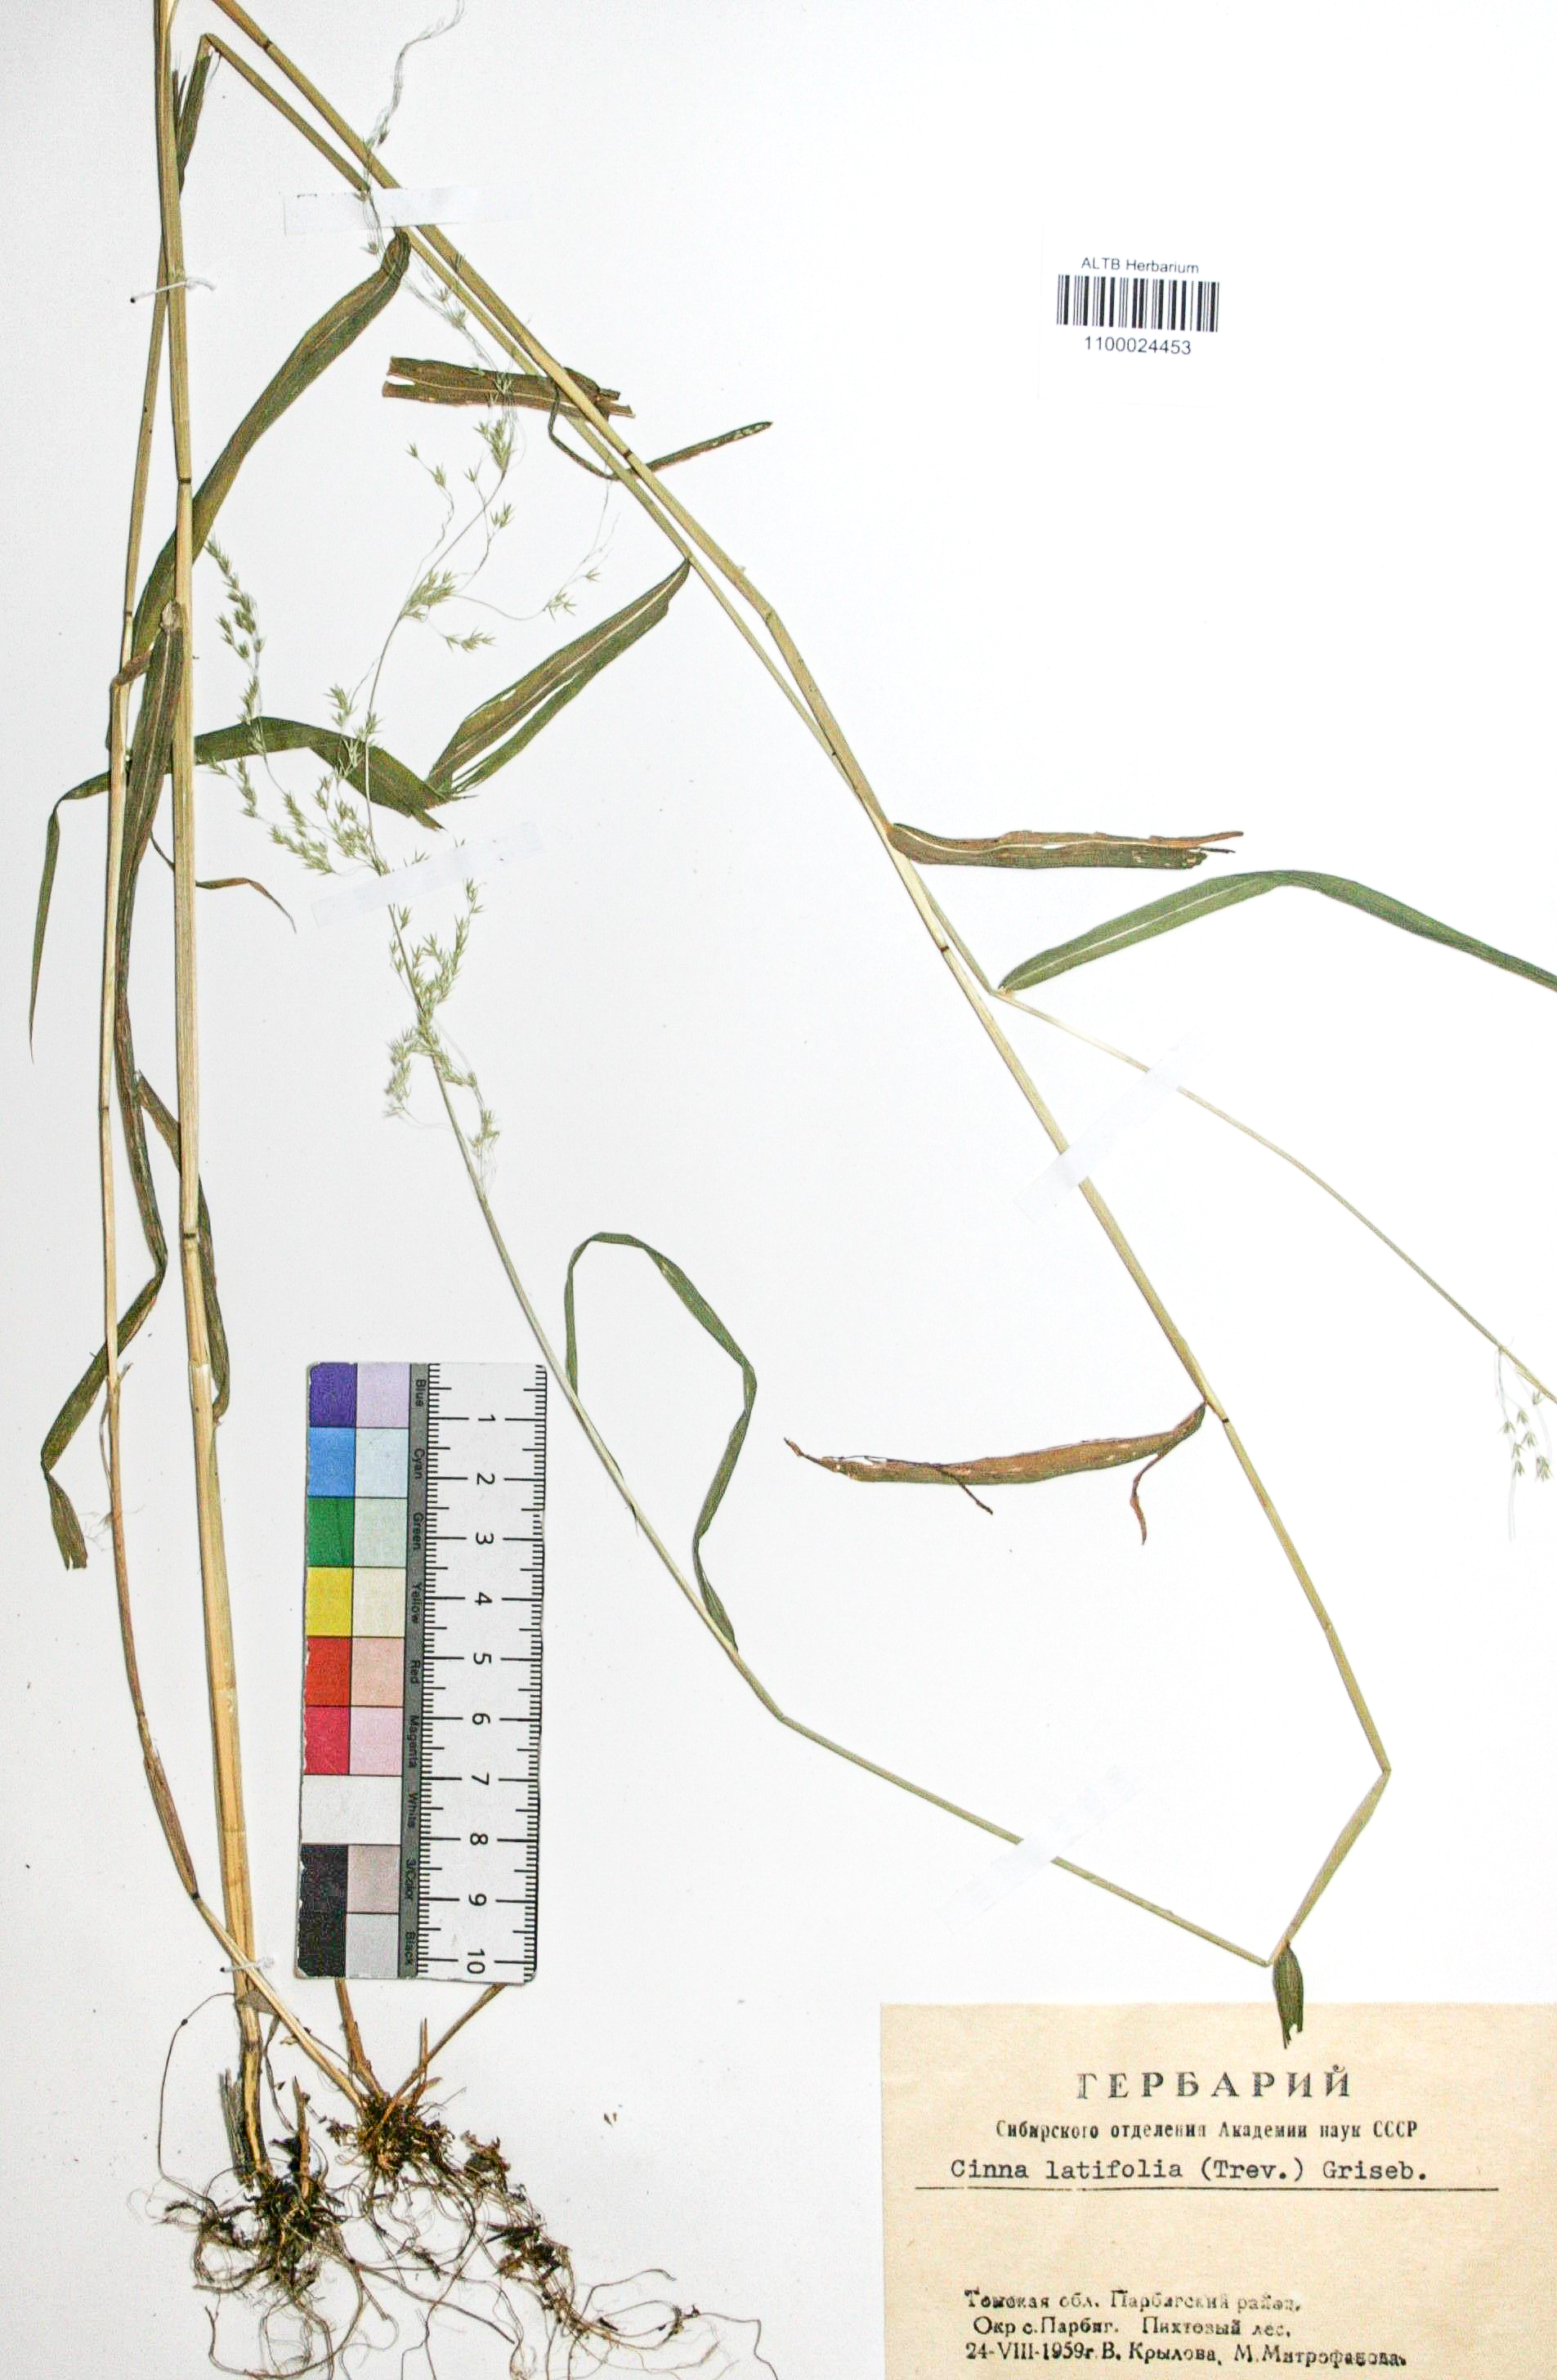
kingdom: Plantae
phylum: Tracheophyta
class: Liliopsida
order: Poales
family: Poaceae
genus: Cinna
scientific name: Cinna latifolia
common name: Drooping woodreed
